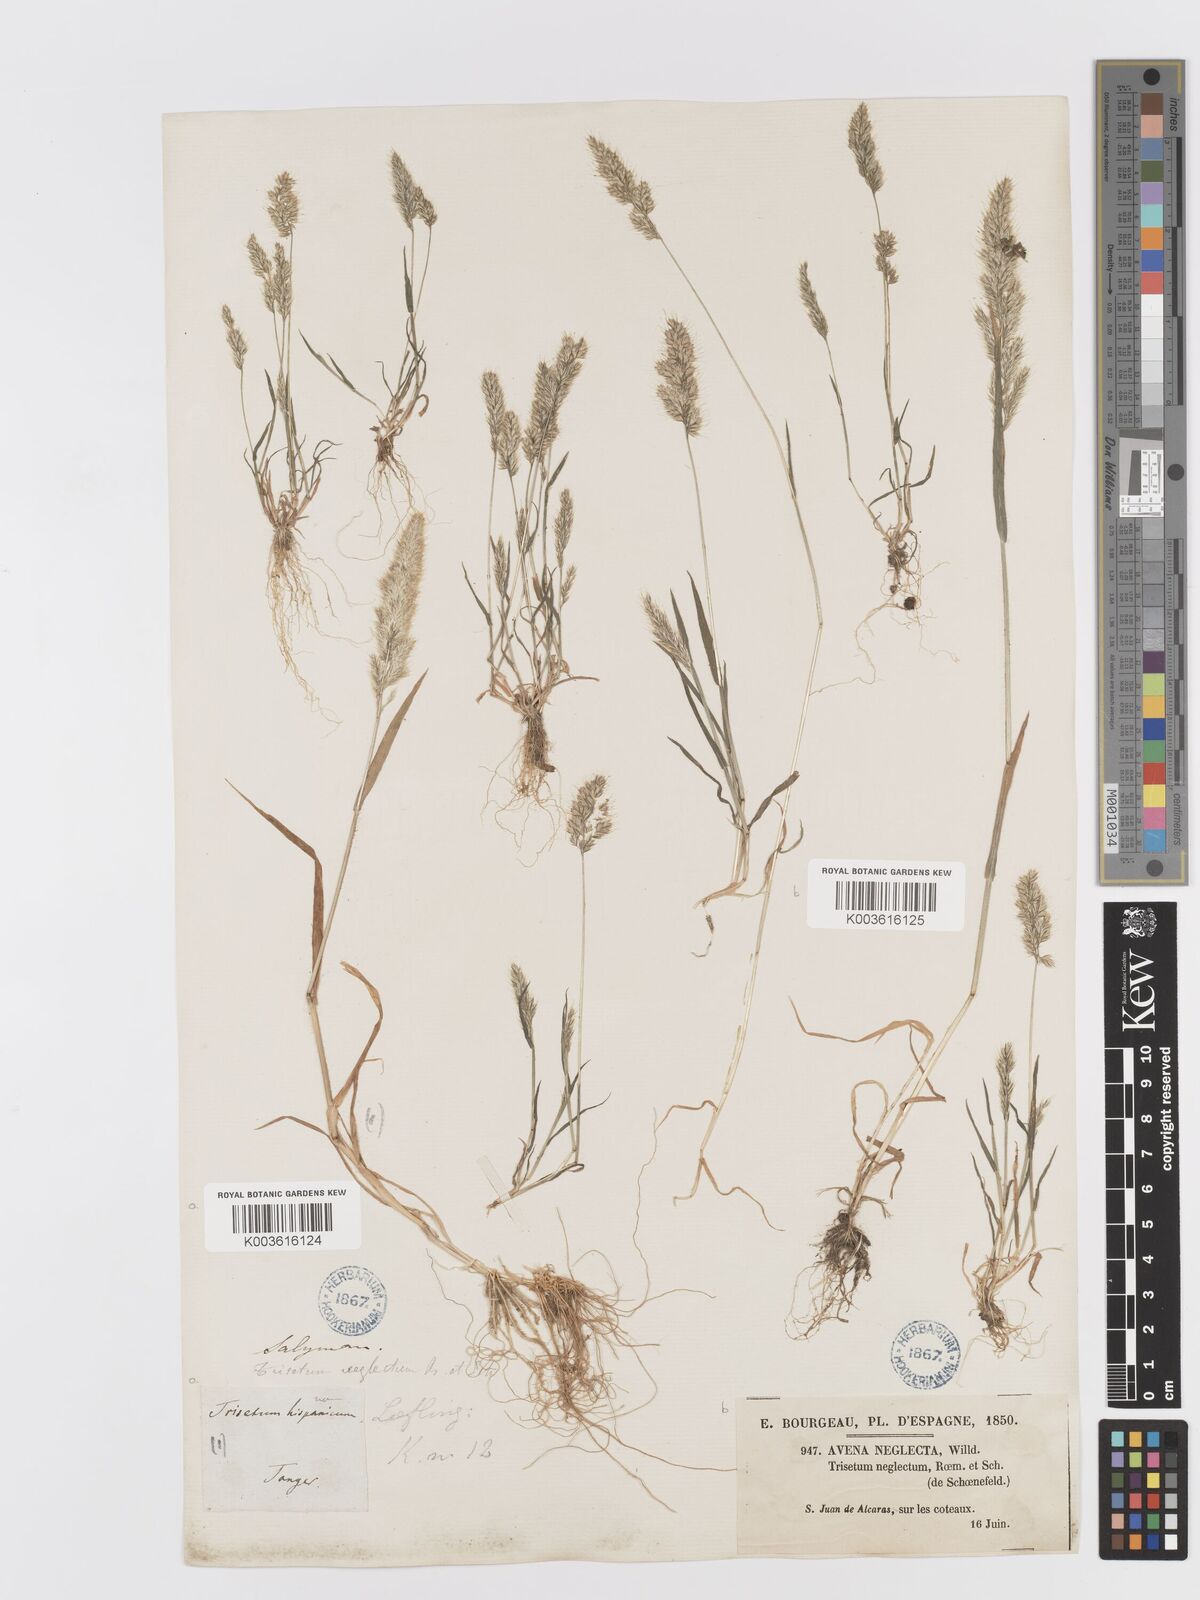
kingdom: Plantae
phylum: Tracheophyta
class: Liliopsida
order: Poales
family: Poaceae
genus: Trisetaria
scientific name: Trisetaria panicea
